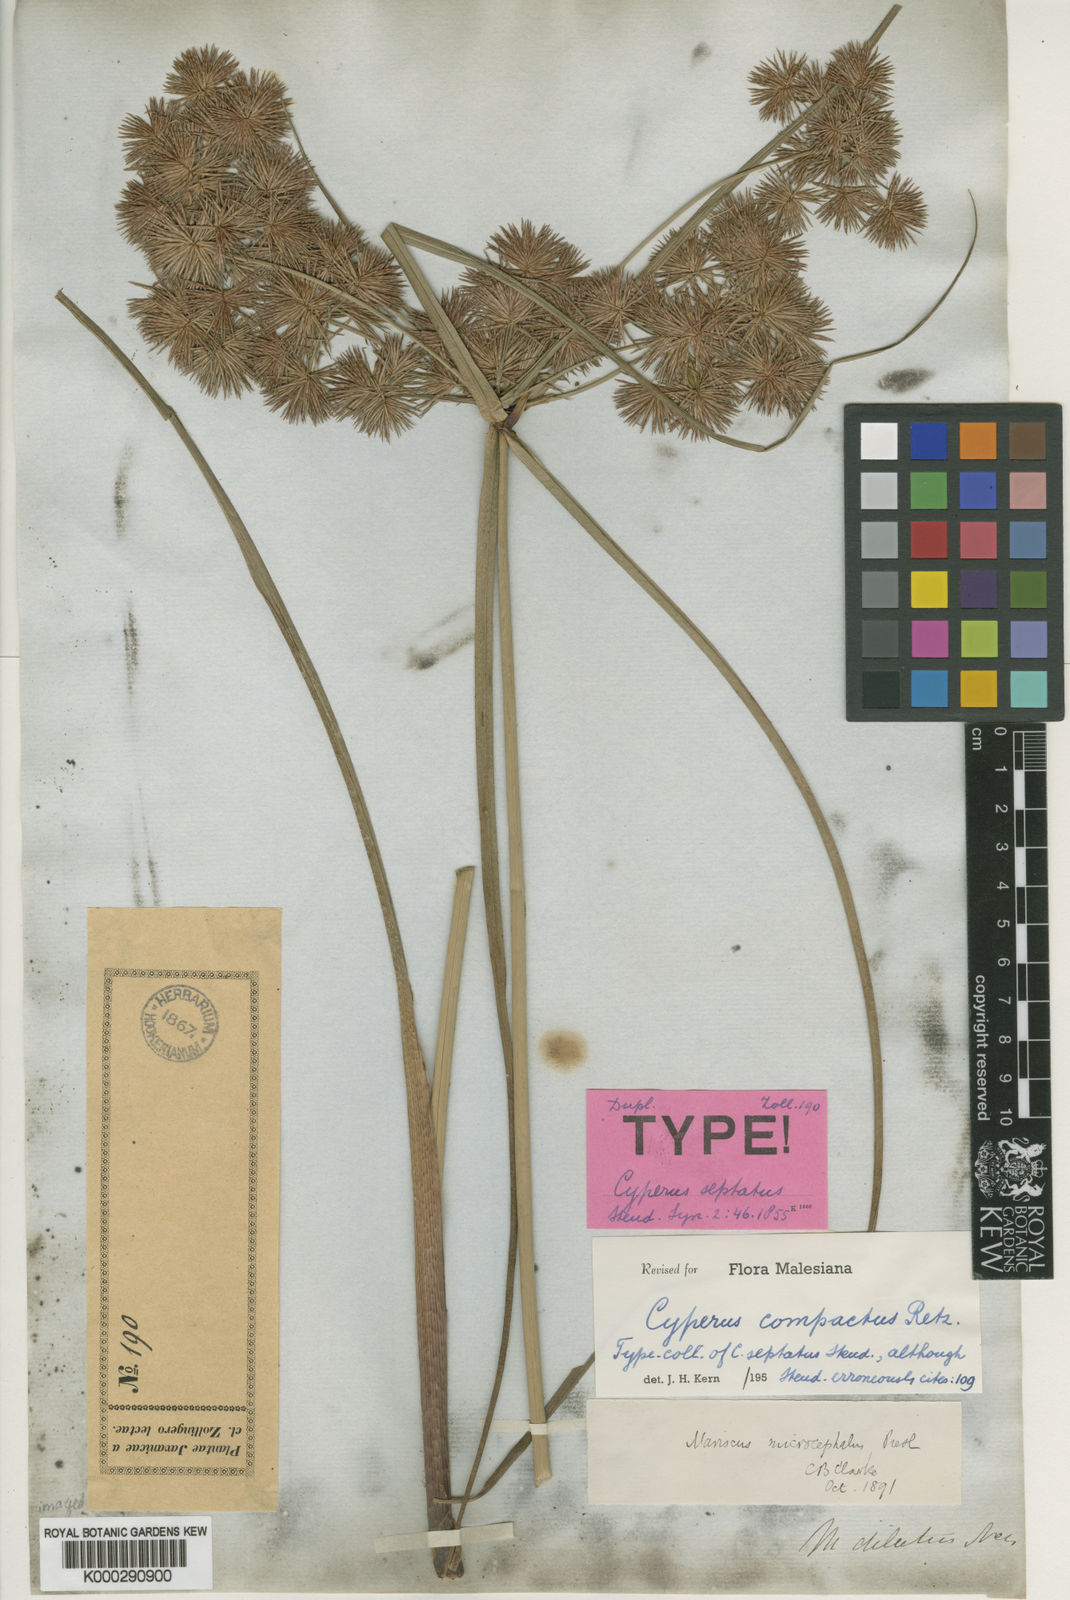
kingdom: Plantae
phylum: Tracheophyta
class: Liliopsida
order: Poales
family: Cyperaceae
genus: Cyperus
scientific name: Cyperus compactus
